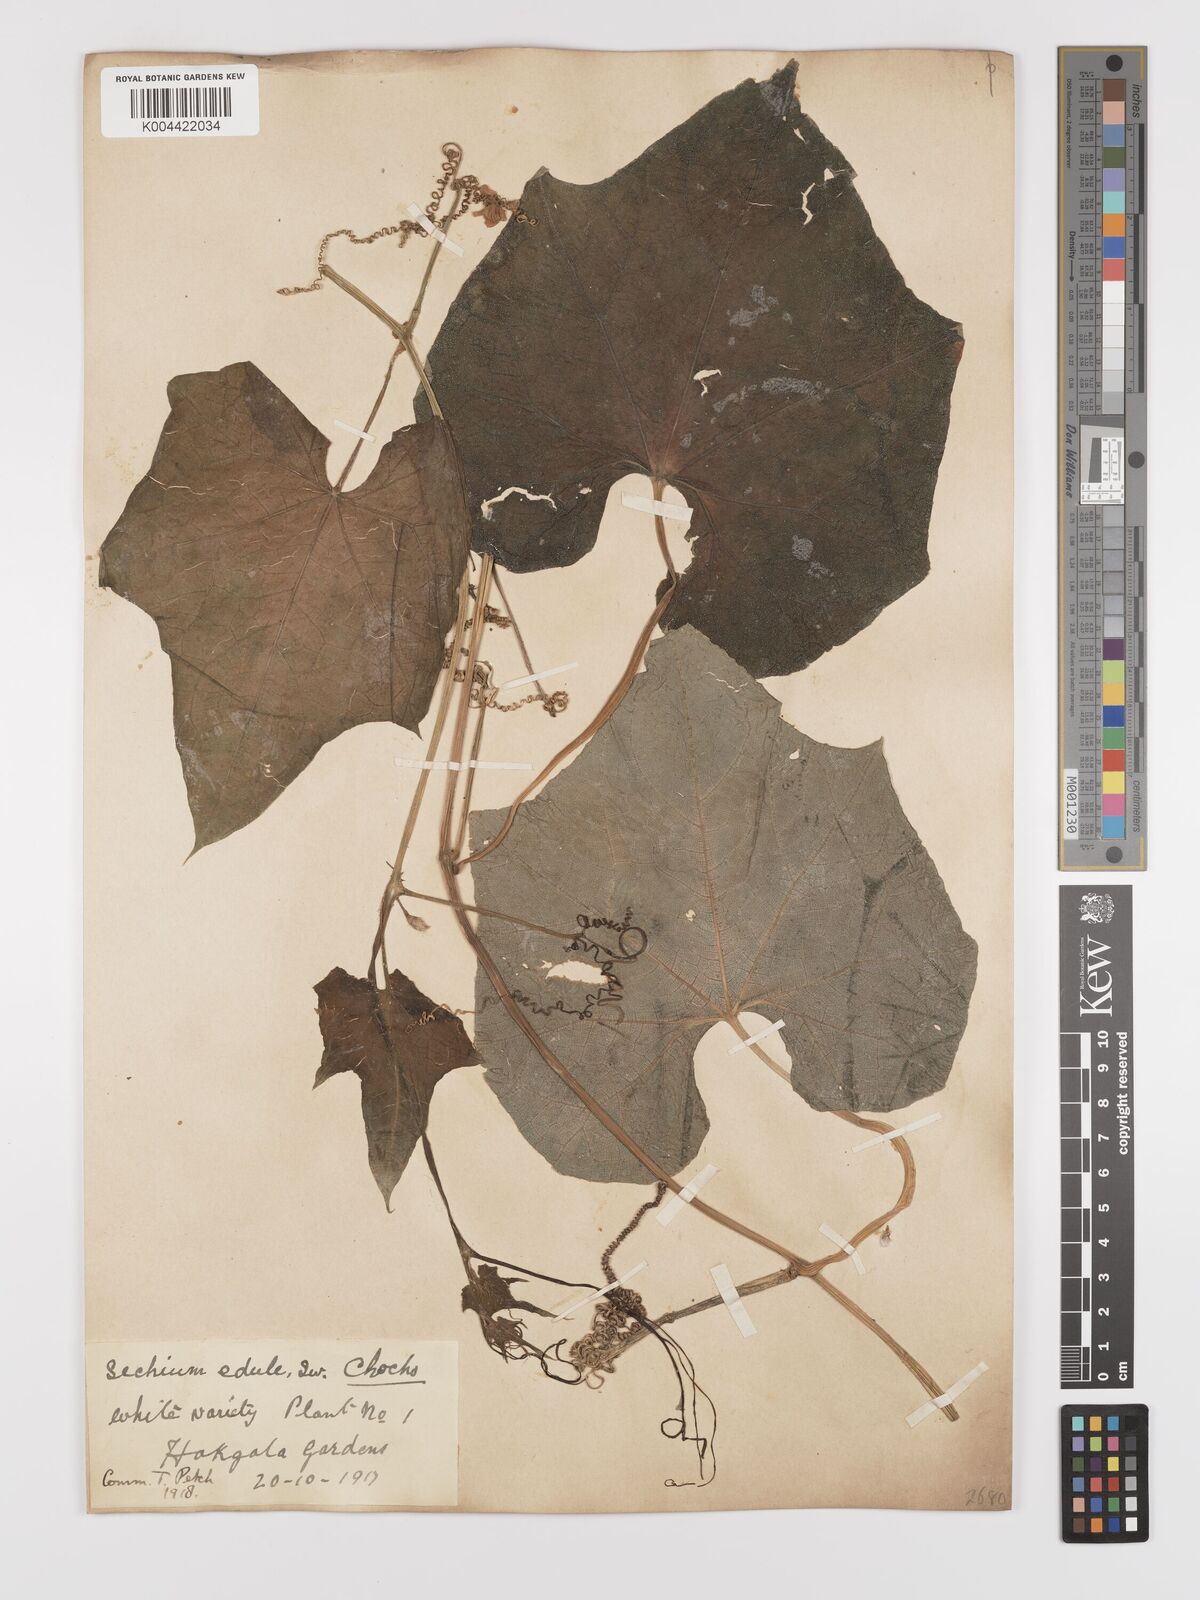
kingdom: Plantae
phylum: Tracheophyta
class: Magnoliopsida
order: Cucurbitales
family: Cucurbitaceae
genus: Sechium
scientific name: Sechium edule
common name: Chayote
